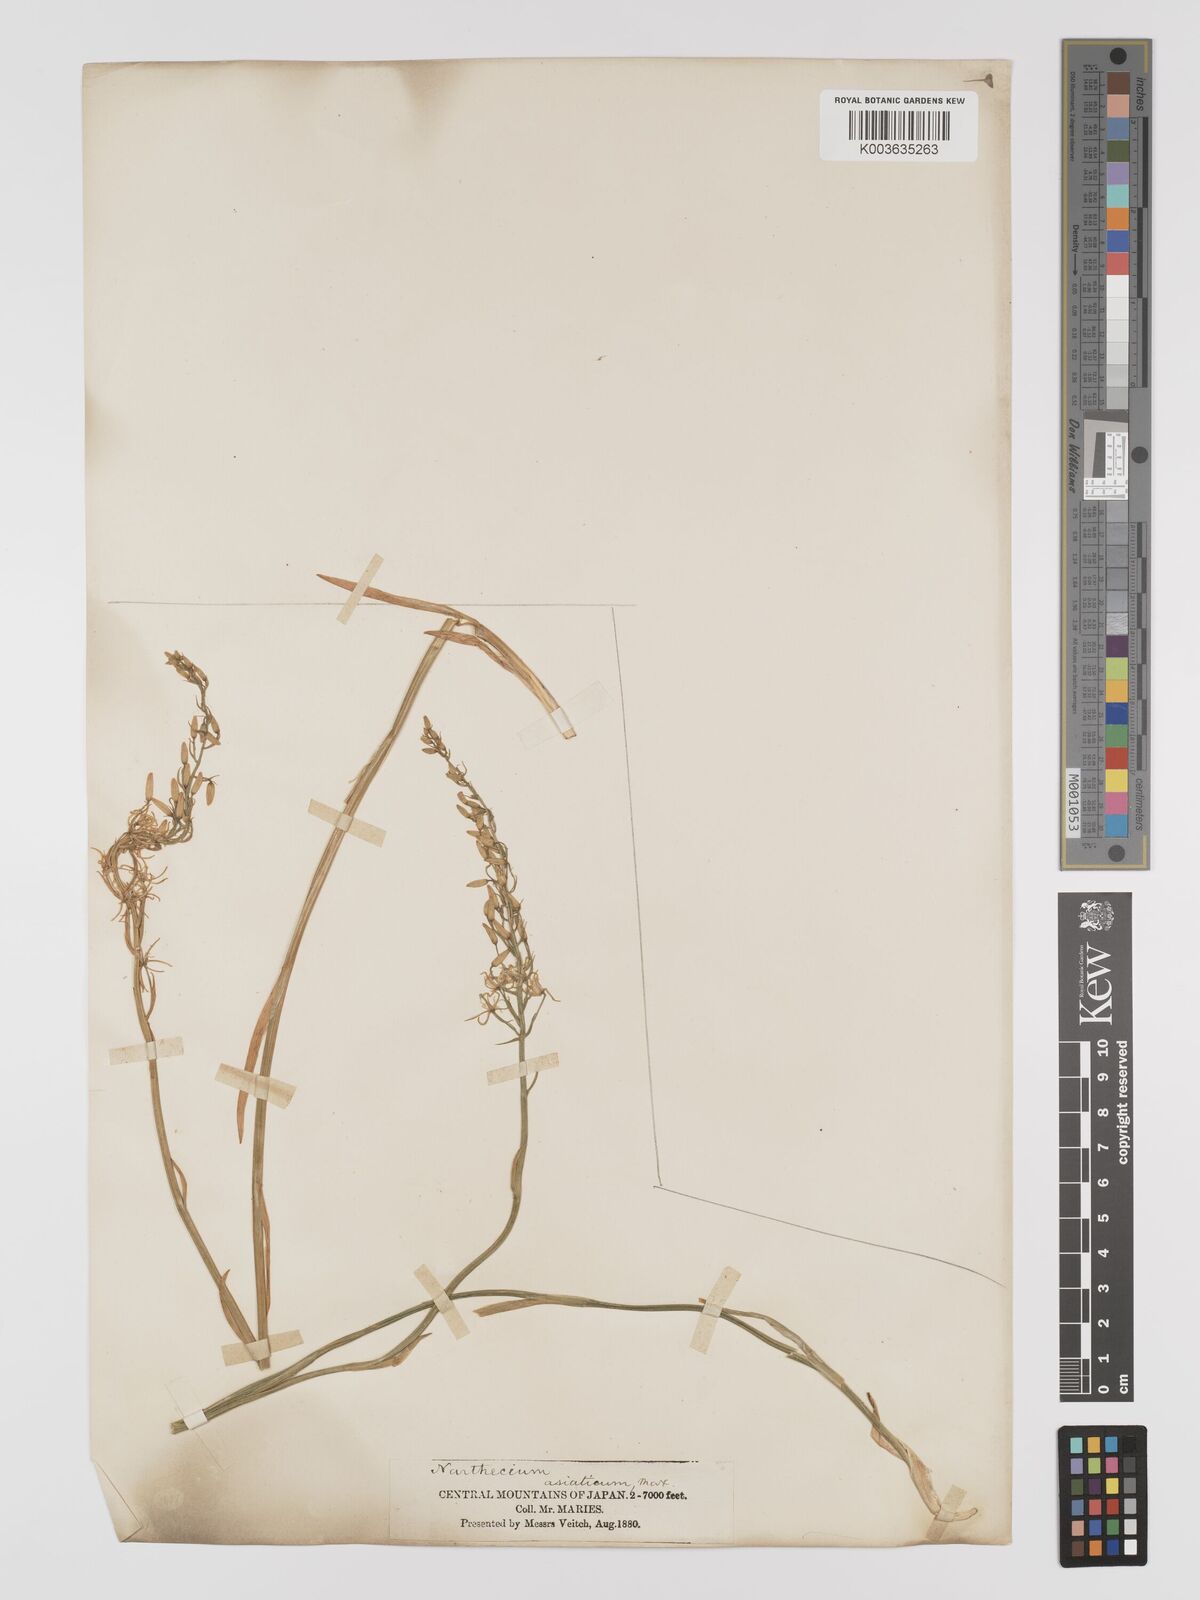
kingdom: Plantae
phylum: Tracheophyta
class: Liliopsida
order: Dioscoreales
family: Nartheciaceae
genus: Narthecium
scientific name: Narthecium asiaticum
